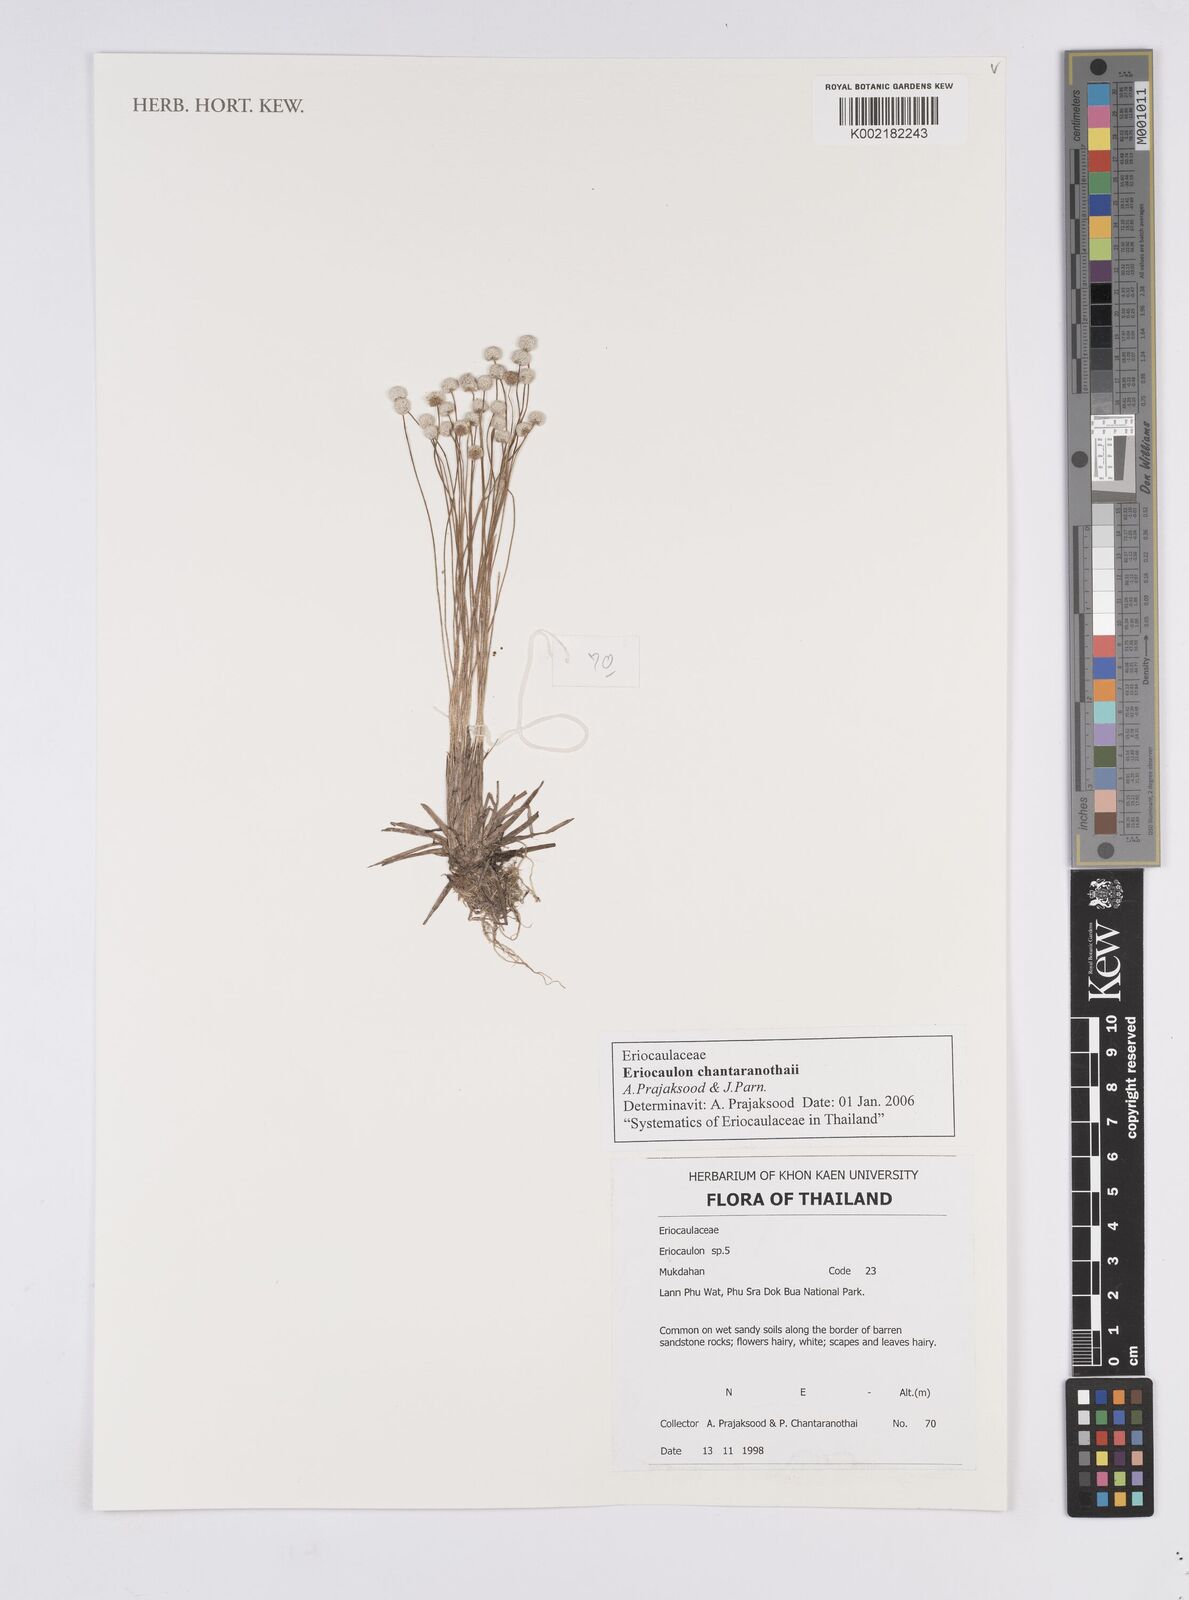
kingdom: Plantae
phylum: Tracheophyta
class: Liliopsida
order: Poales
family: Eriocaulaceae
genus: Eriocaulon
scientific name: Eriocaulon chantaranothaii
